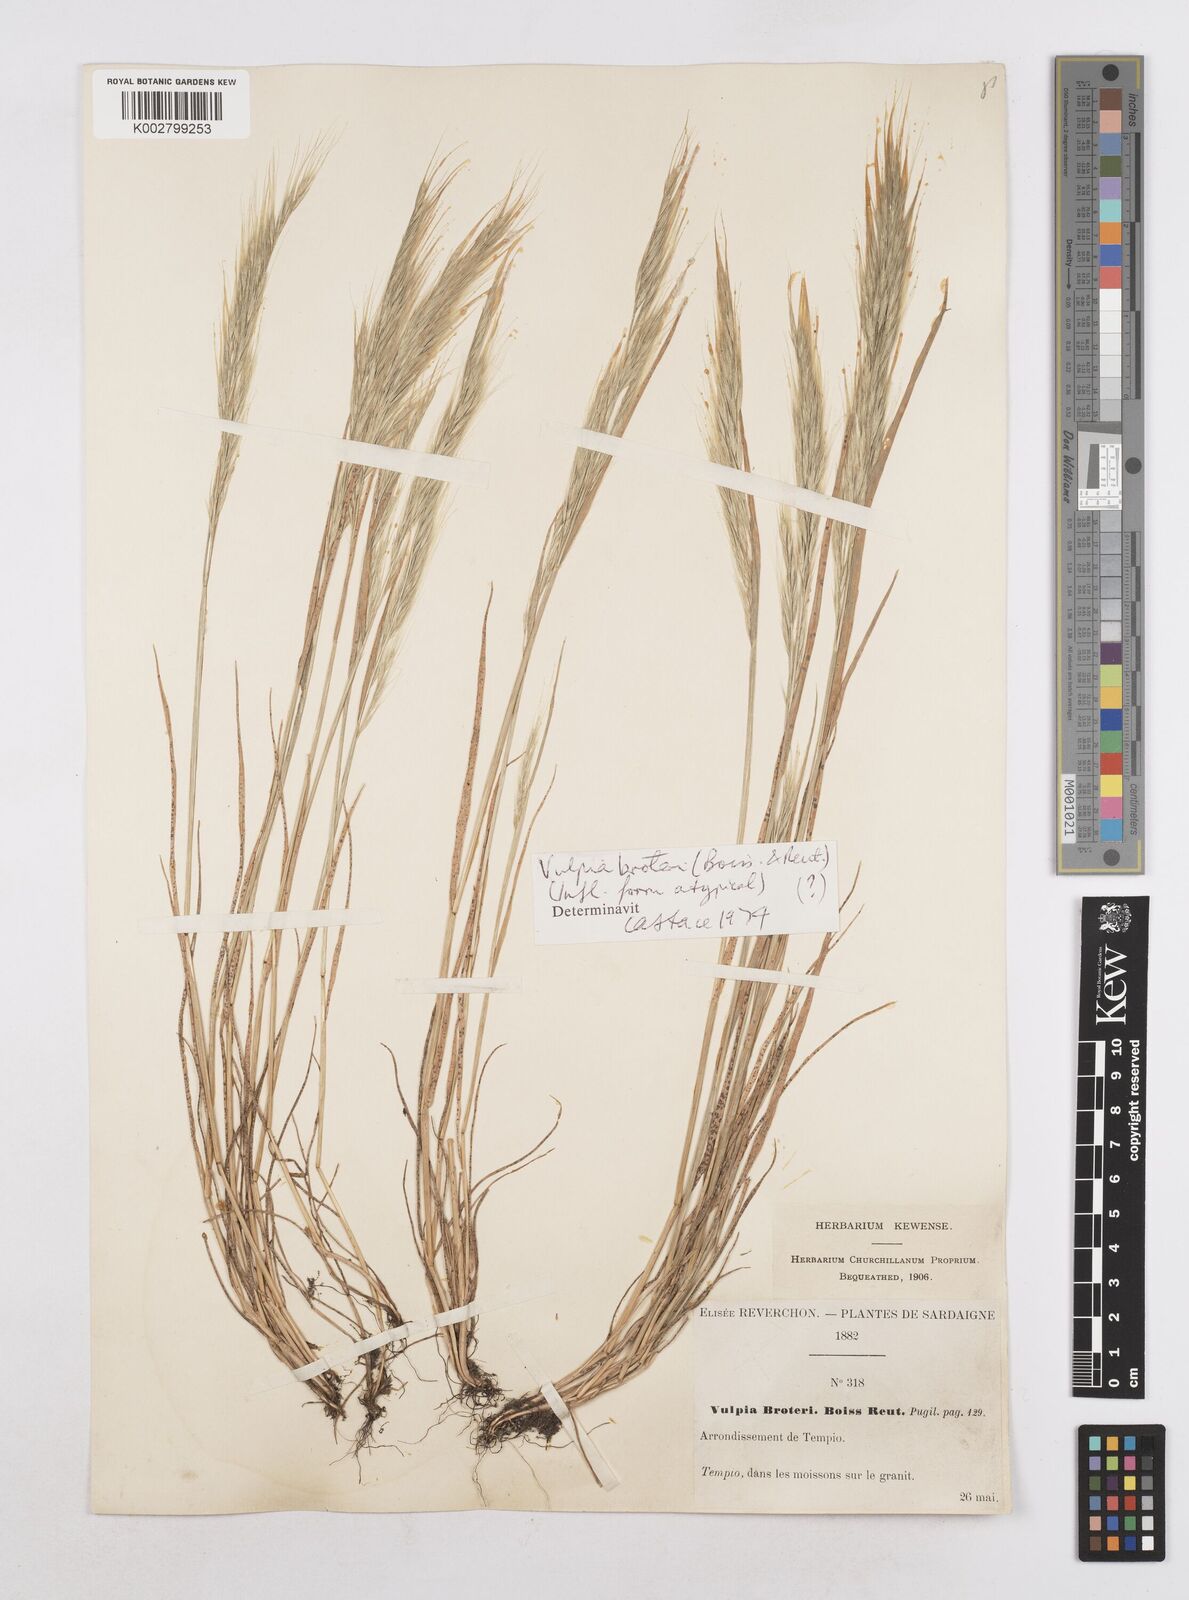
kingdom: Plantae
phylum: Tracheophyta
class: Liliopsida
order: Poales
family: Poaceae
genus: Festuca
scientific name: Festuca muralis
